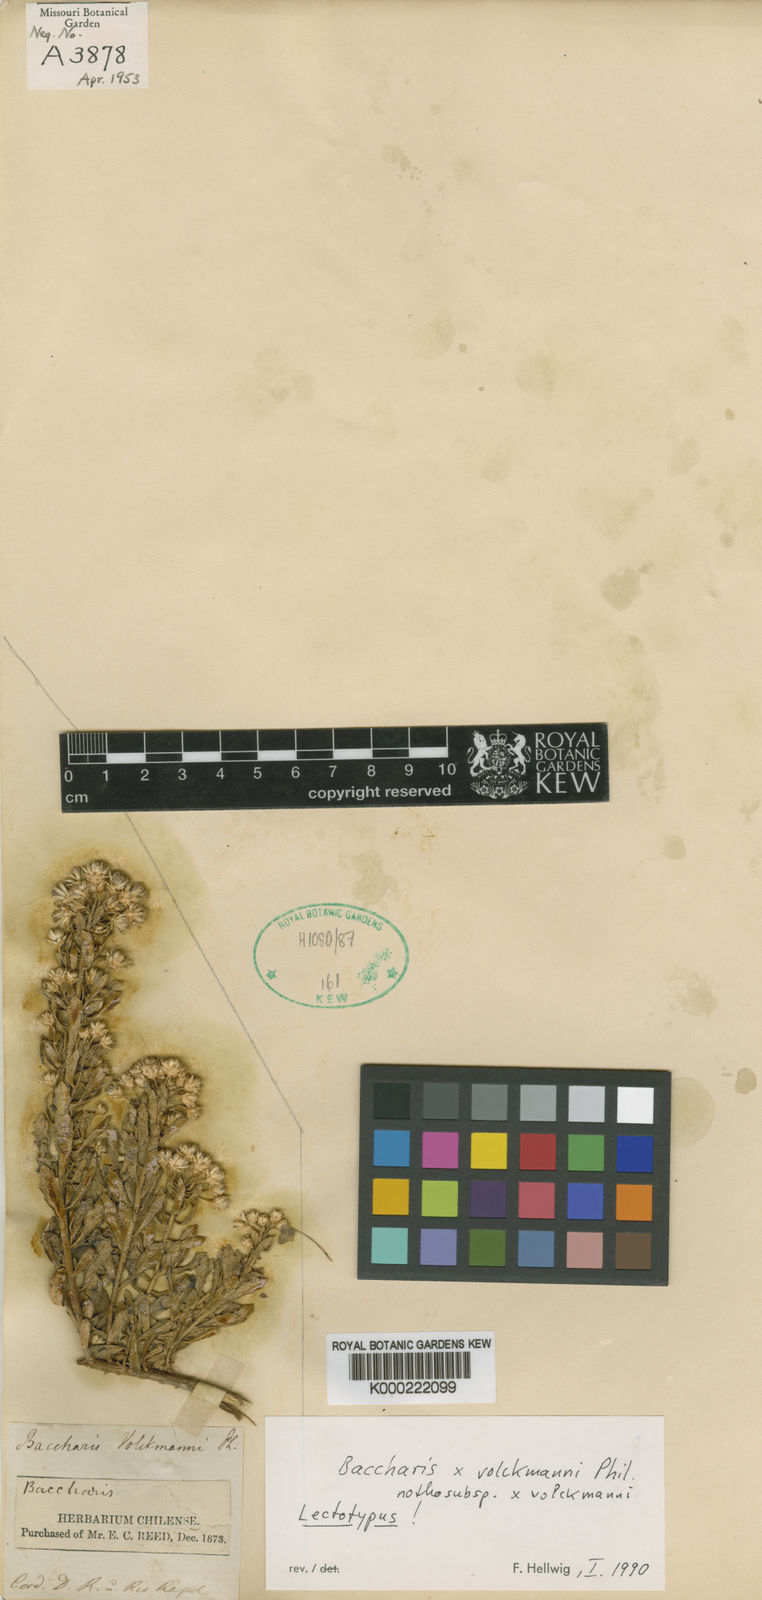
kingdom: Plantae
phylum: Tracheophyta
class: Magnoliopsida
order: Asterales
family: Asteraceae
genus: Baccharis
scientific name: Baccharis volckmannii
